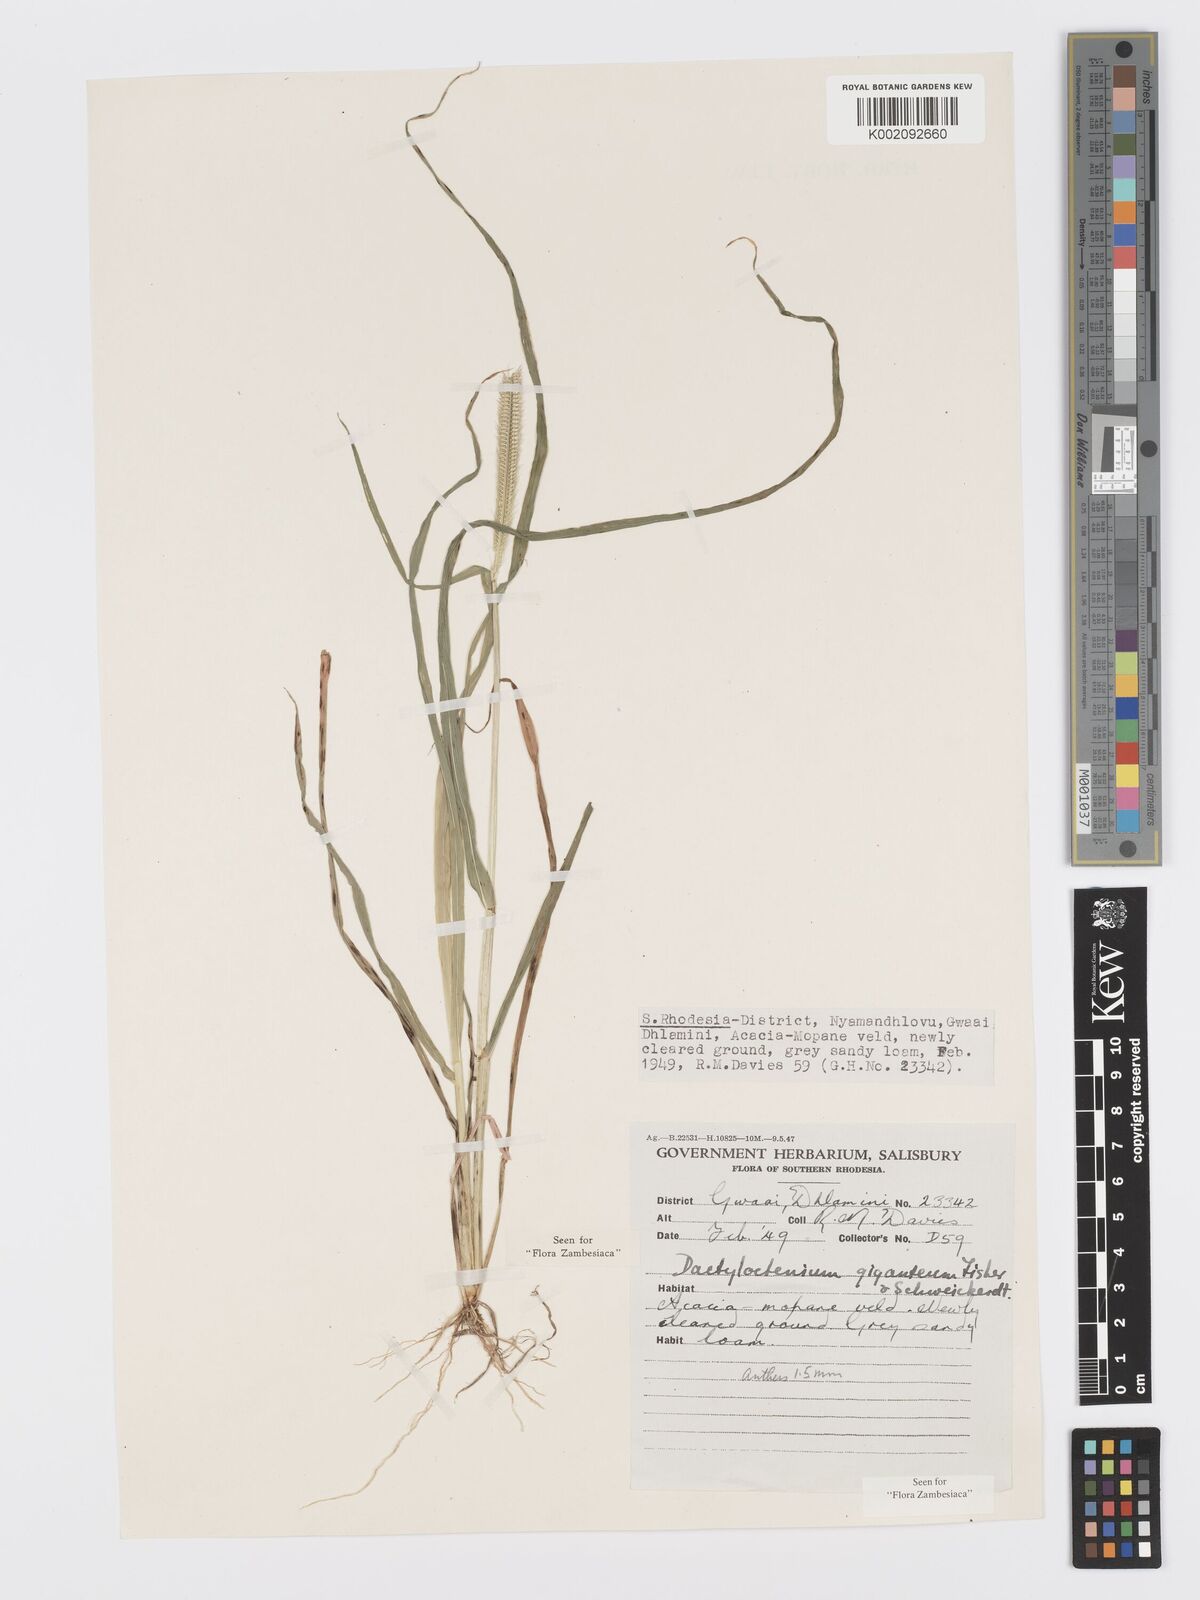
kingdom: Plantae
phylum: Tracheophyta
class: Liliopsida
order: Poales
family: Poaceae
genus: Dactyloctenium
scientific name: Dactyloctenium giganteum
